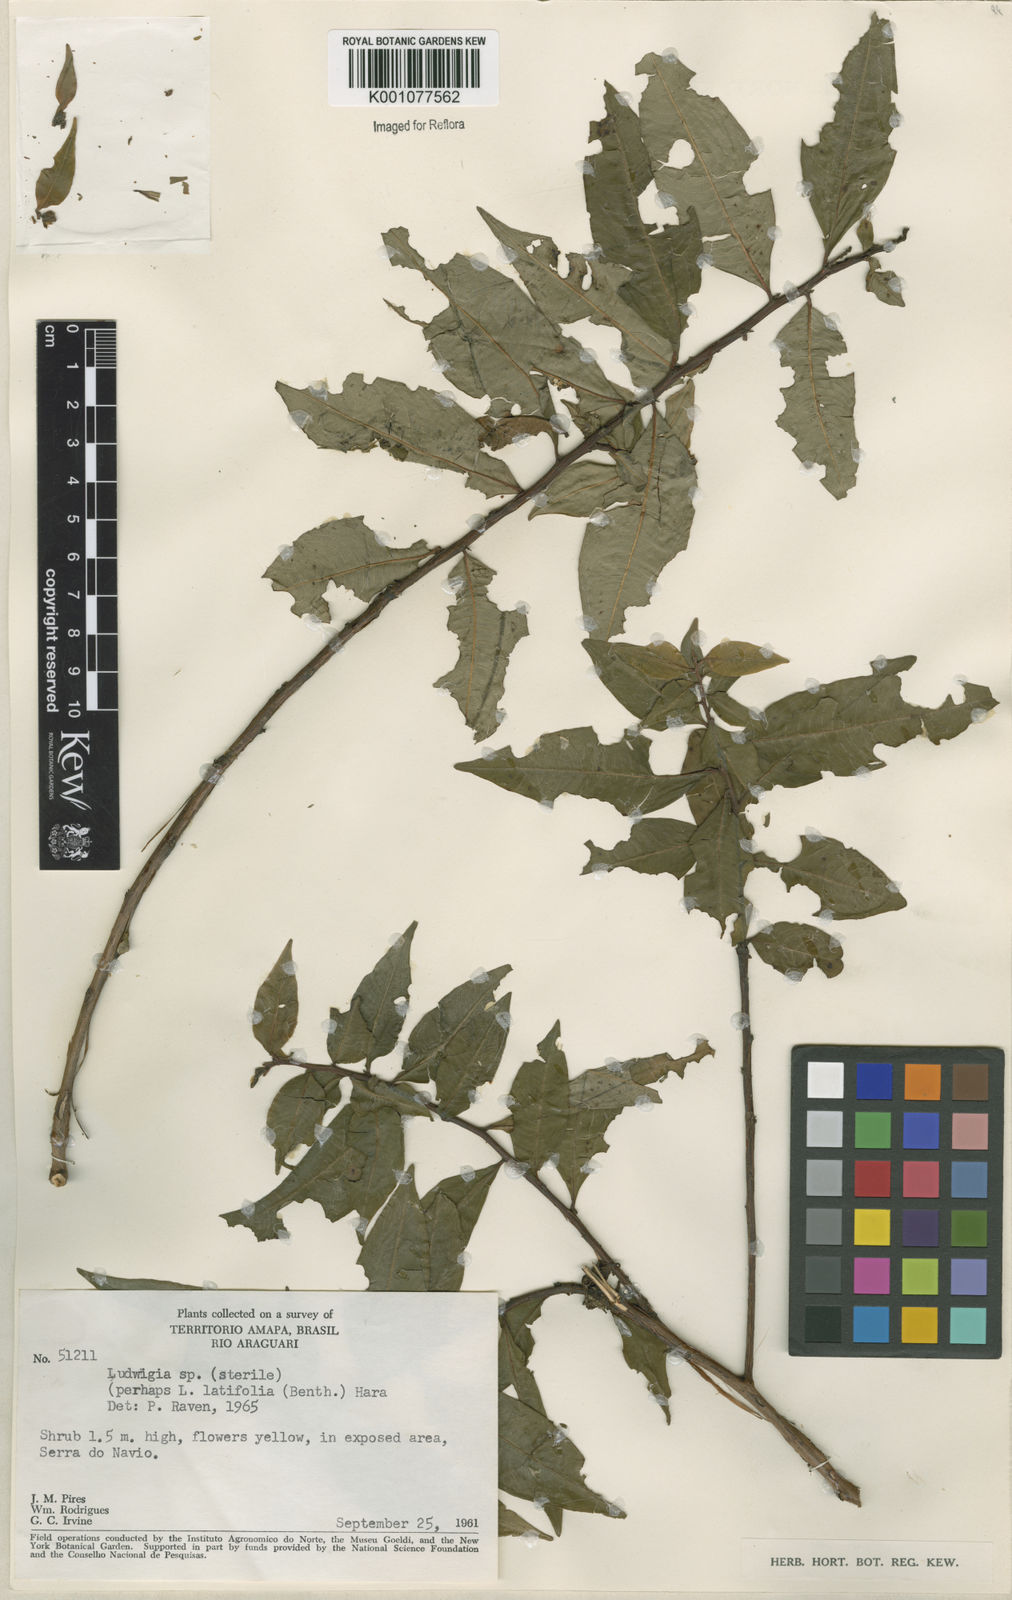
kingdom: Plantae
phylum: Tracheophyta
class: Magnoliopsida
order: Myrtales
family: Onagraceae
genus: Ludwigia
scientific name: Ludwigia
